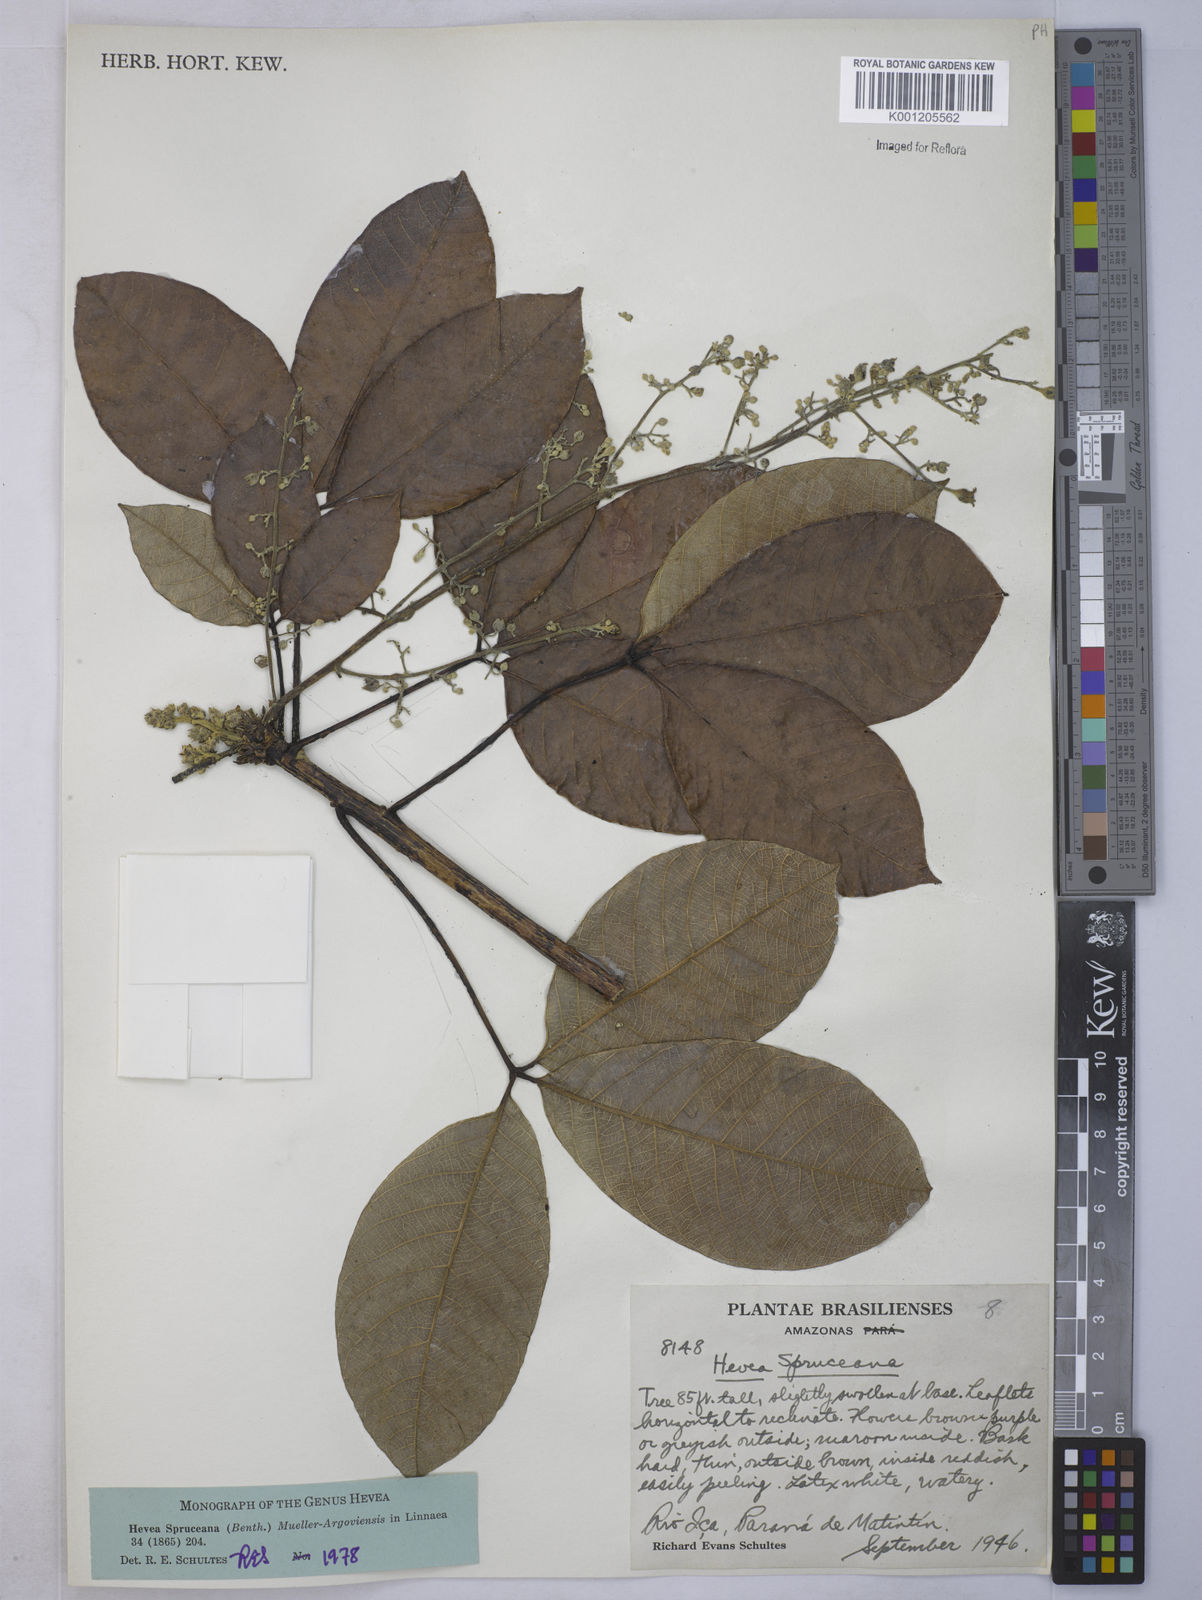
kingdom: Plantae
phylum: Tracheophyta
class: Magnoliopsida
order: Malpighiales
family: Euphorbiaceae
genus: Hevea
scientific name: Hevea
